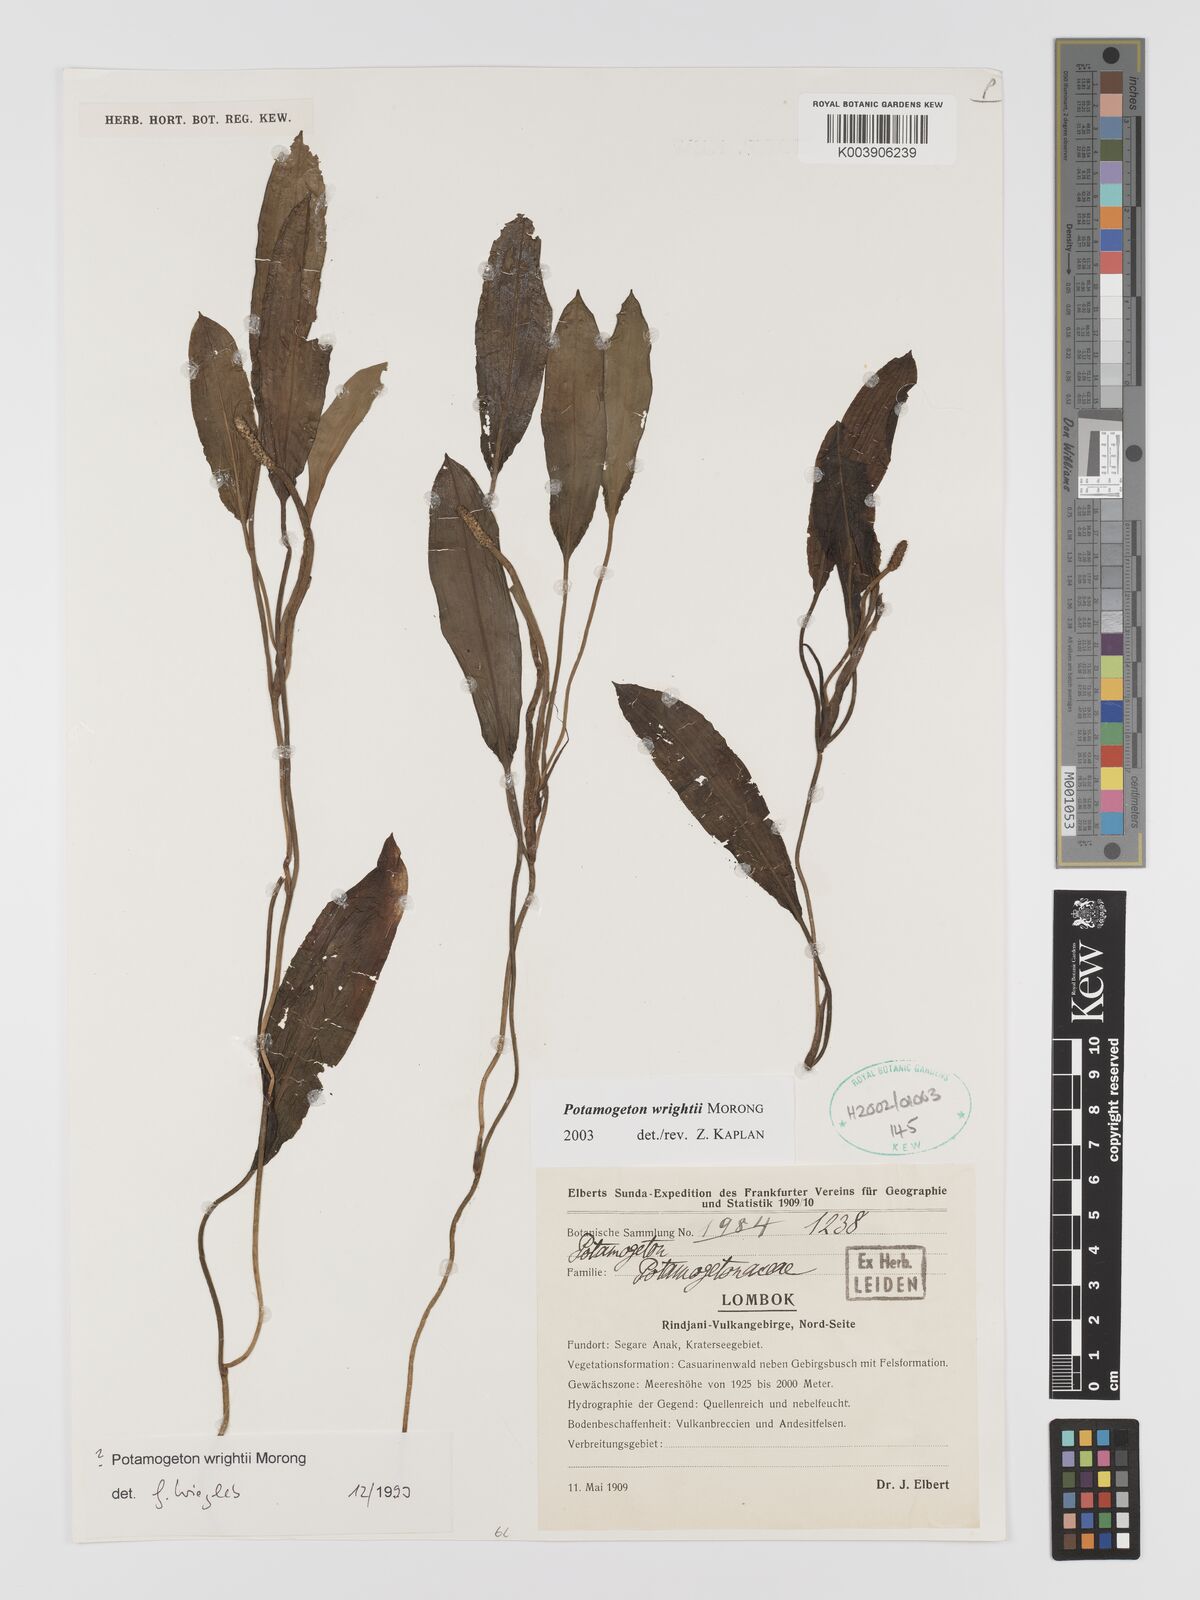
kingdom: Plantae
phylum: Tracheophyta
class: Liliopsida
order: Alismatales
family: Potamogetonaceae
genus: Potamogeton
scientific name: Potamogeton wrightii
